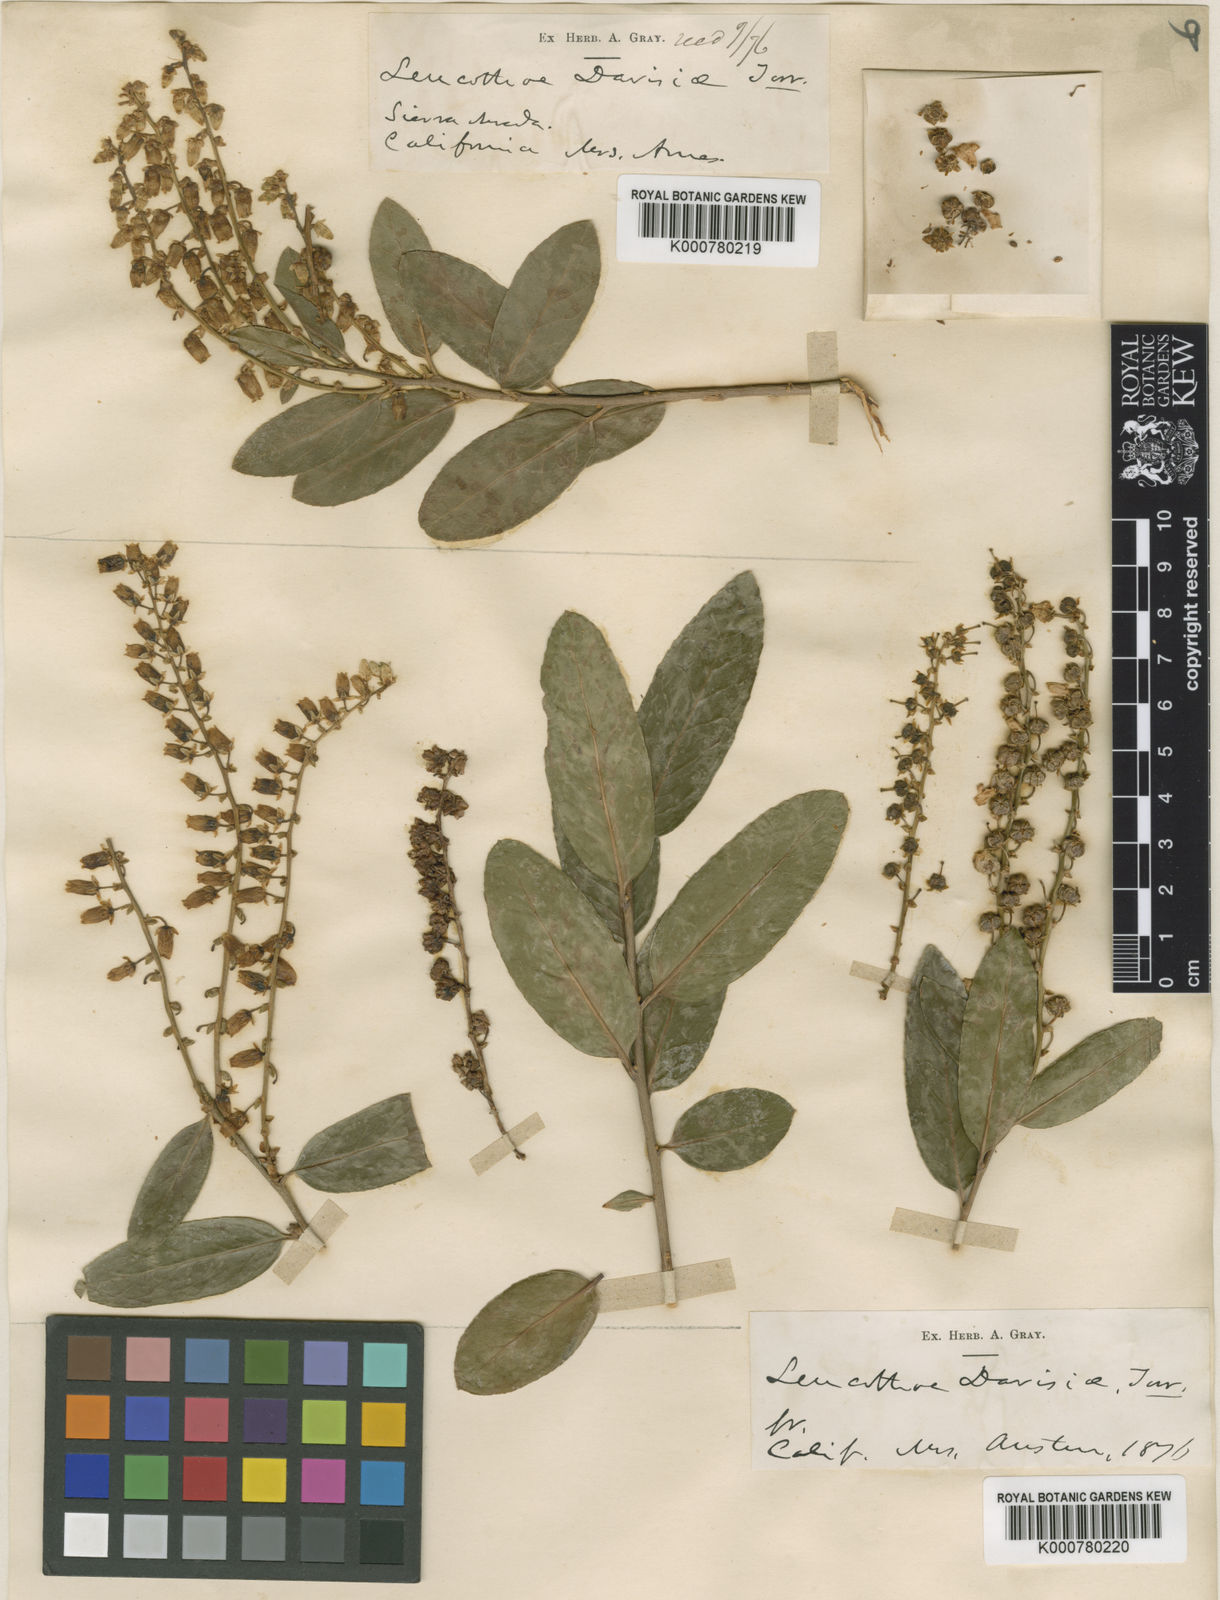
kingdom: Plantae
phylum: Tracheophyta
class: Magnoliopsida
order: Ericales
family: Ericaceae
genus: Leucothoe
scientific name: Leucothoe
